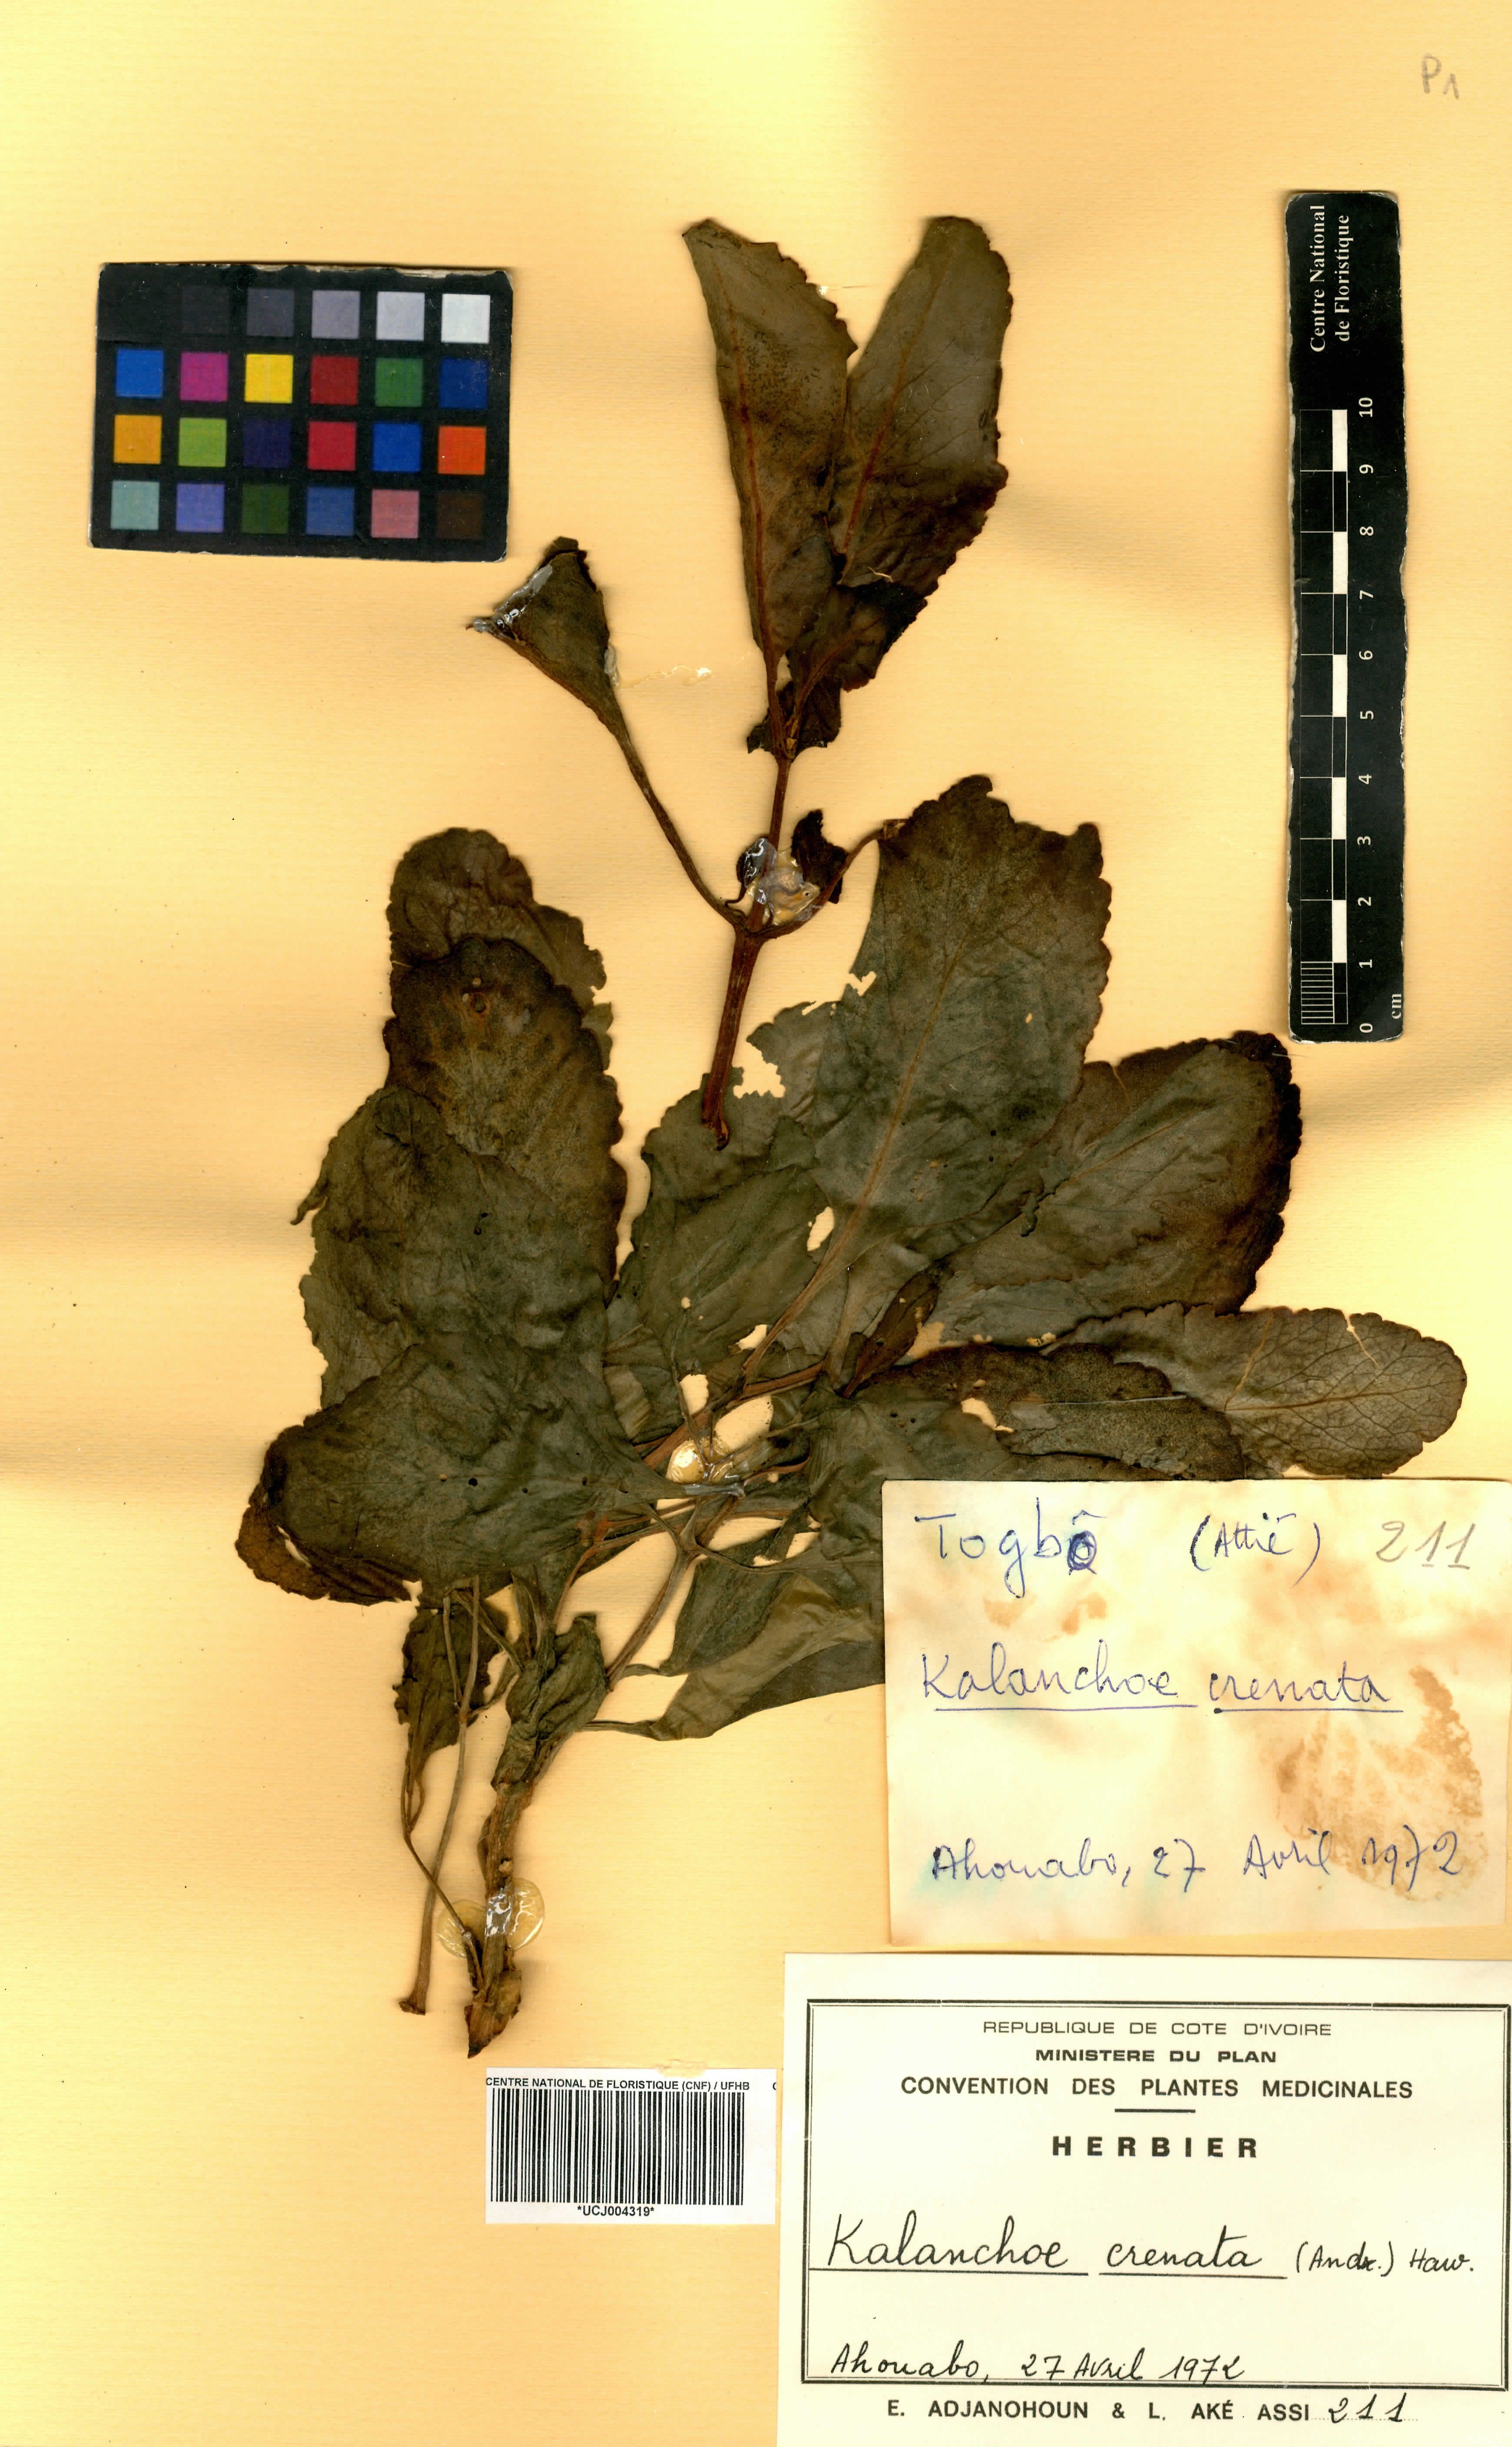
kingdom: Plantae
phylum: Tracheophyta
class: Magnoliopsida
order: Saxifragales
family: Crassulaceae
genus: Kalanchoe
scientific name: Kalanchoe crenata
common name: Neverdie
